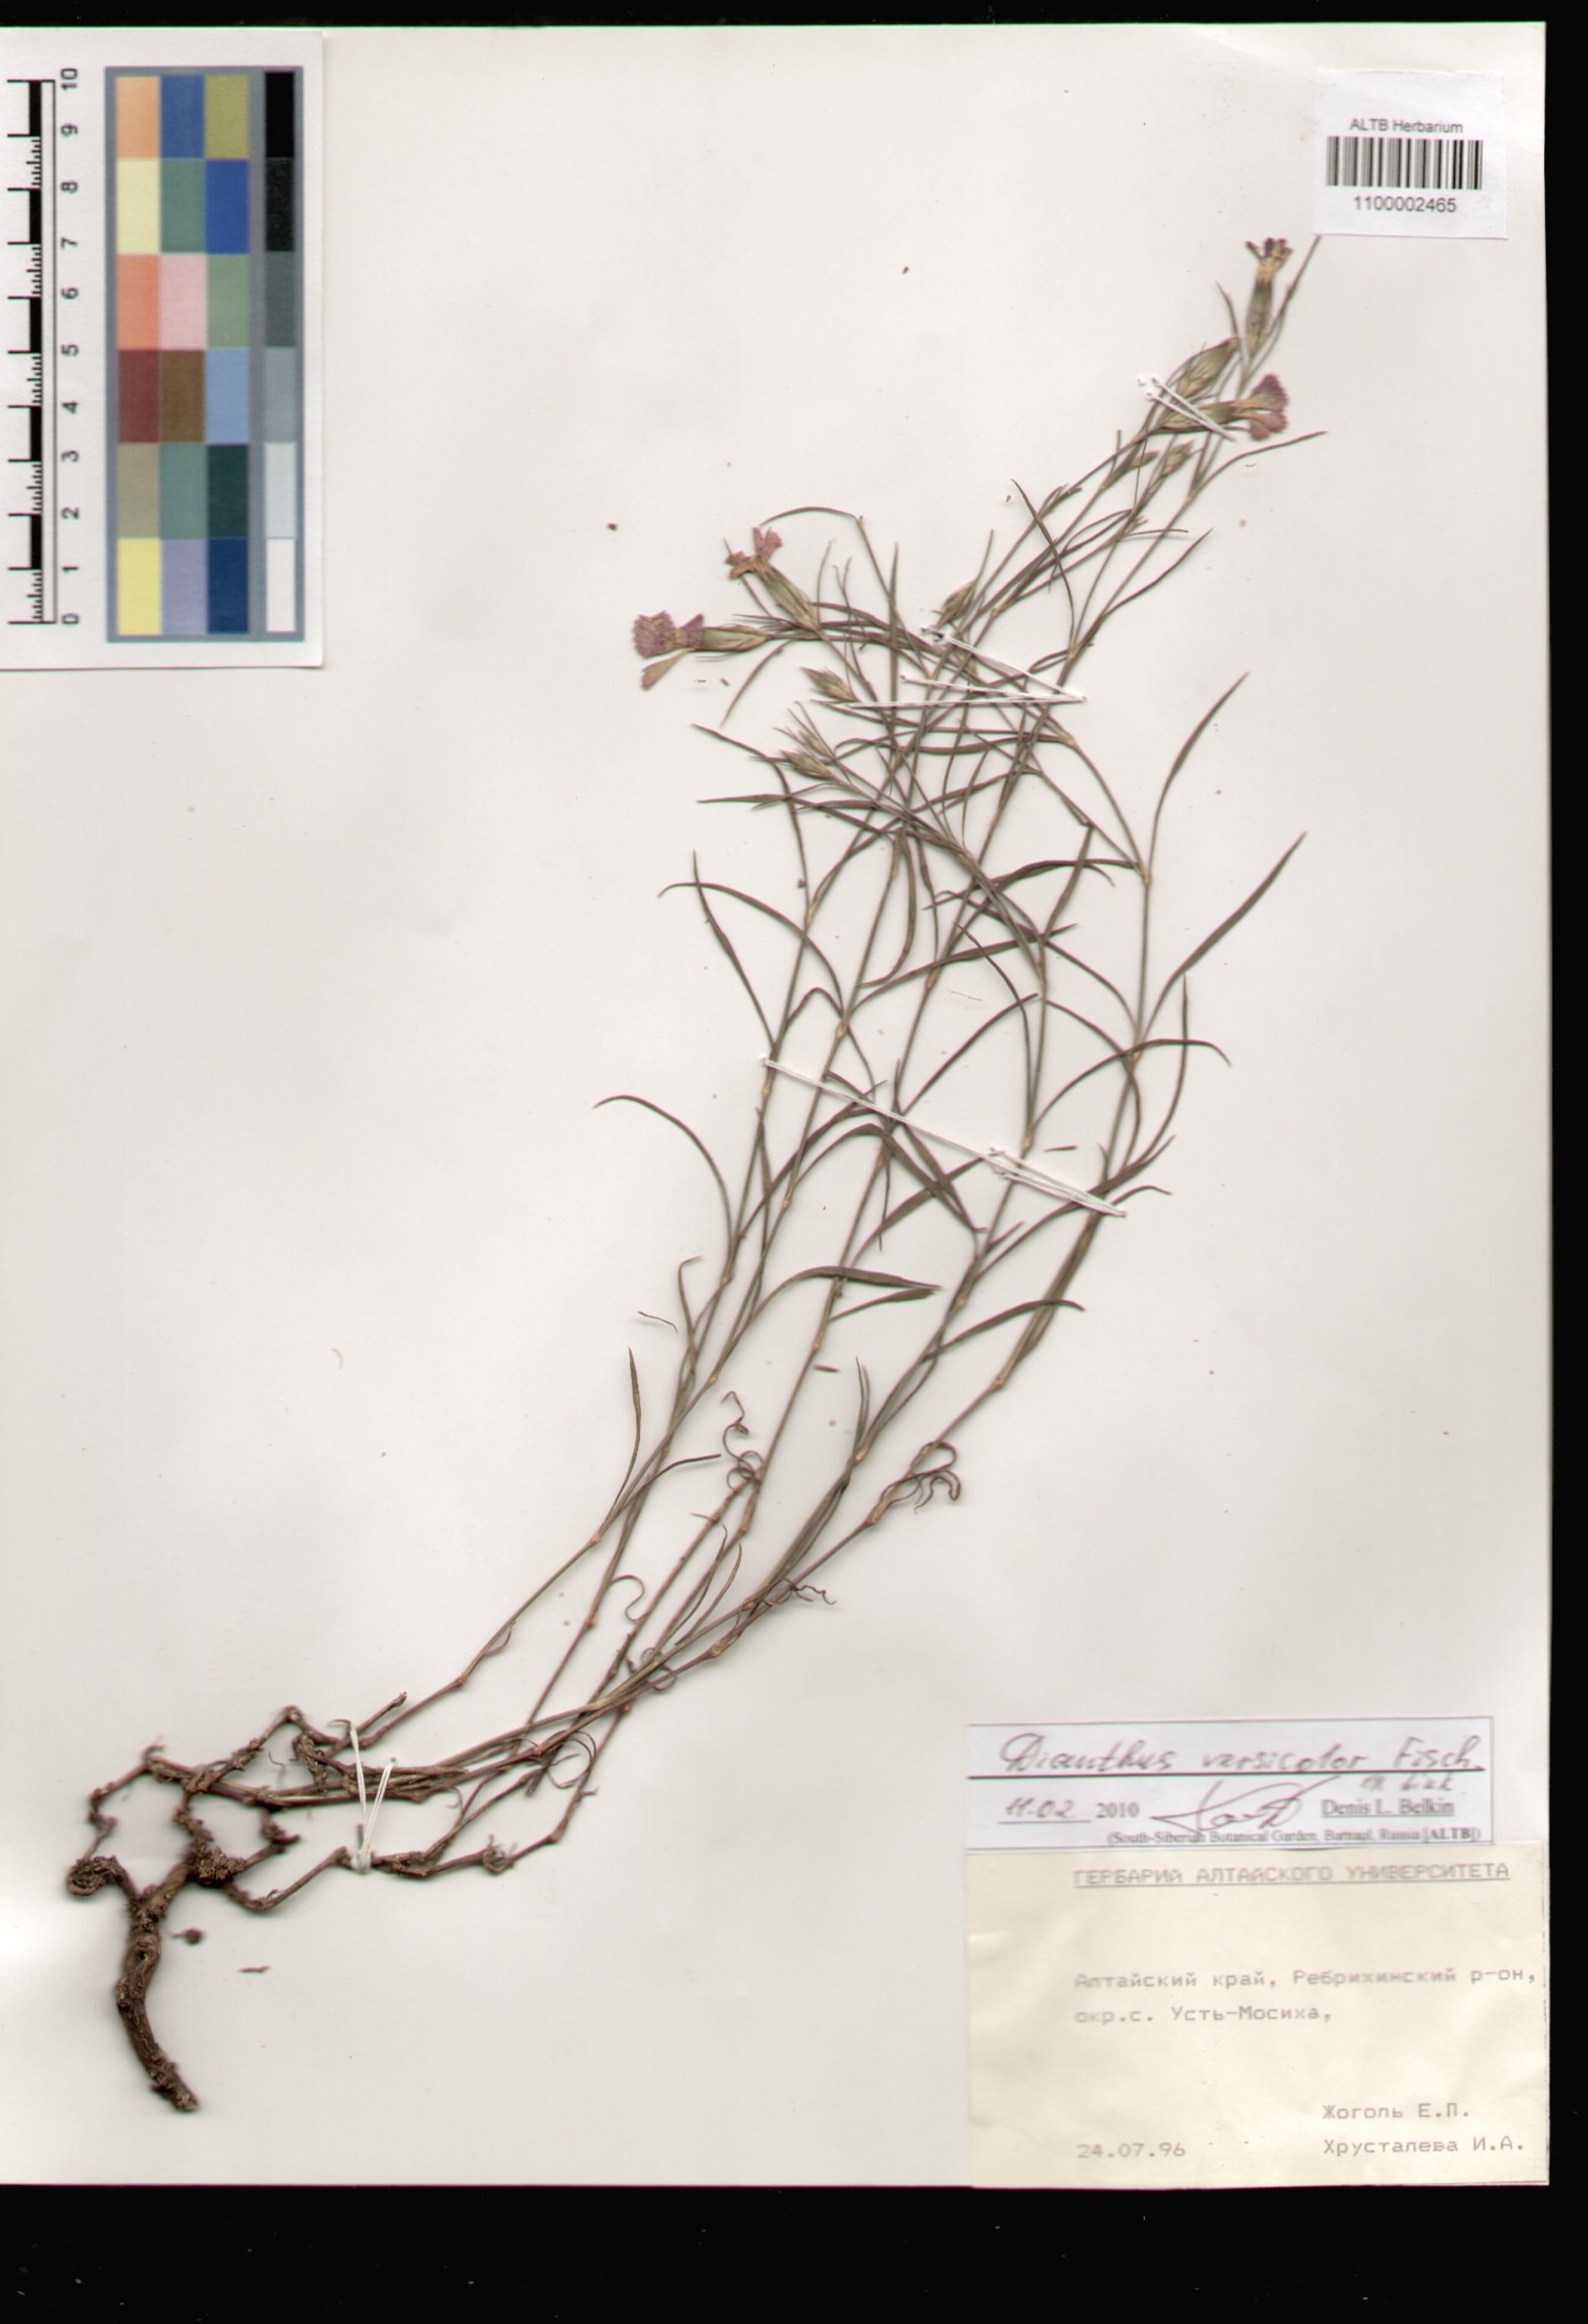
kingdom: Plantae
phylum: Tracheophyta
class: Magnoliopsida
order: Caryophyllales
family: Caryophyllaceae
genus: Dianthus
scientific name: Dianthus chinensis
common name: Rainbow pink
